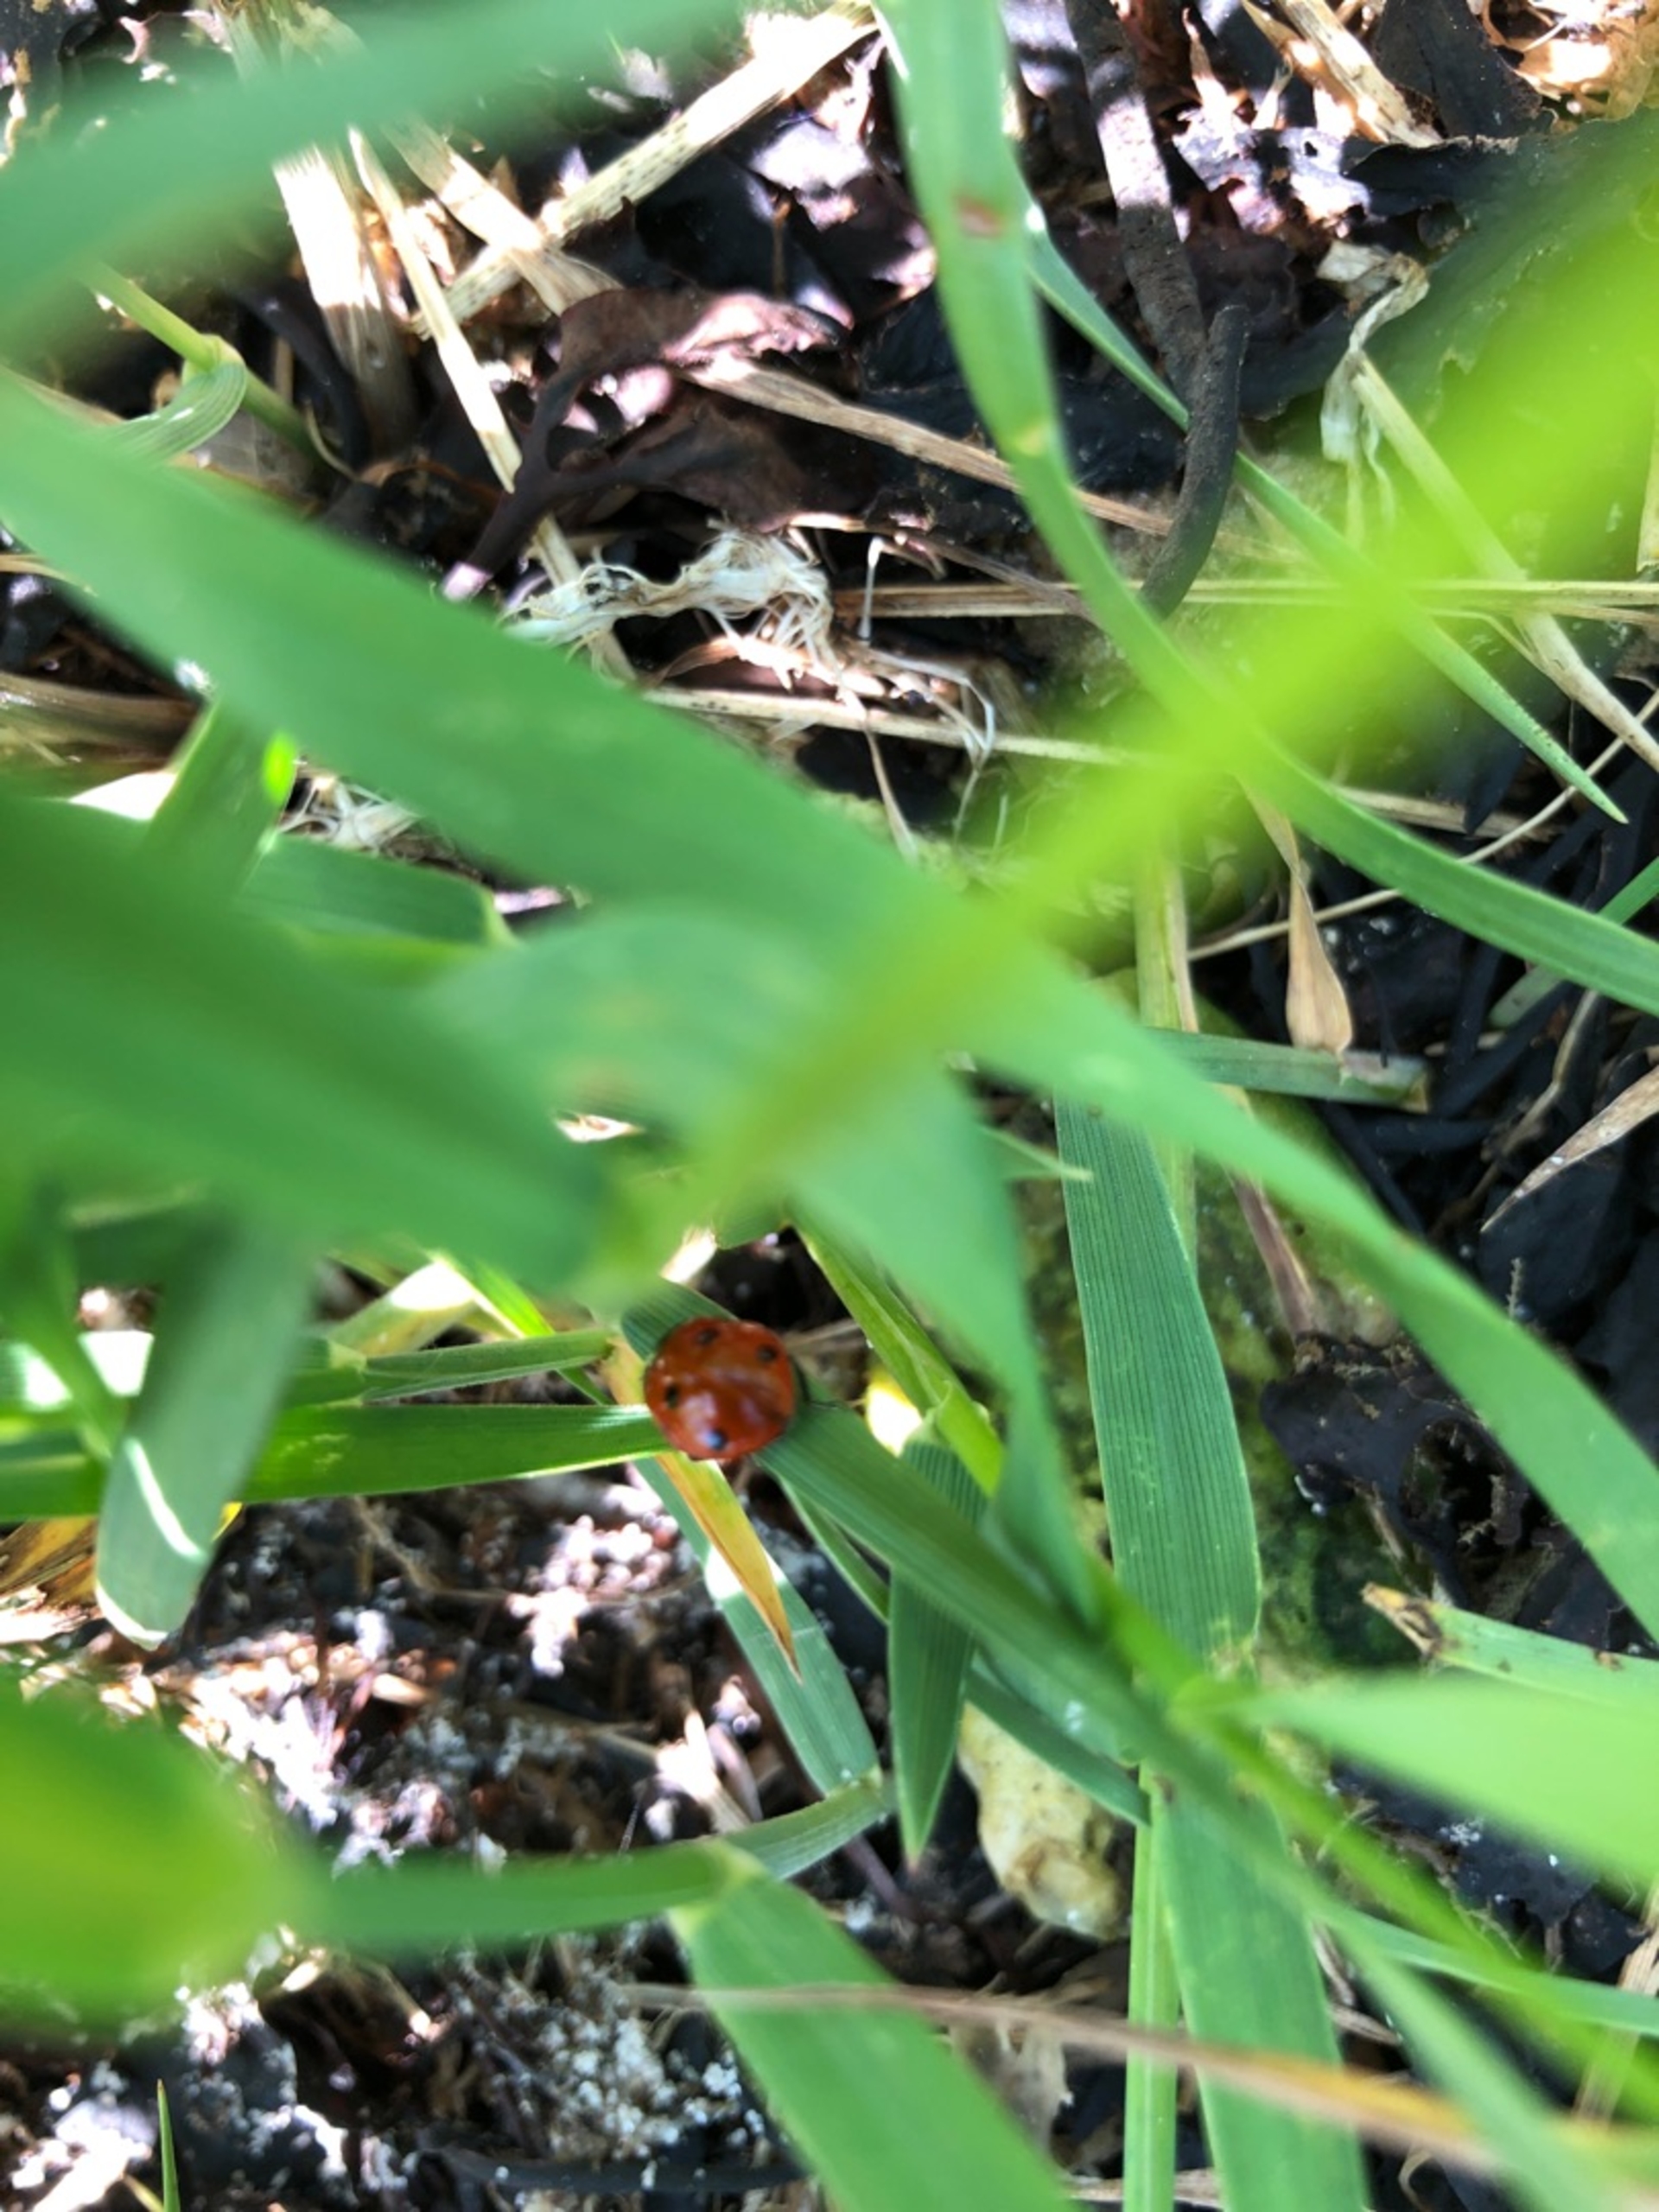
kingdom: Animalia
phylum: Arthropoda
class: Insecta
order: Coleoptera
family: Coccinellidae
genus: Coccinella
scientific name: Coccinella septempunctata
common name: Syvplettet mariehøne
